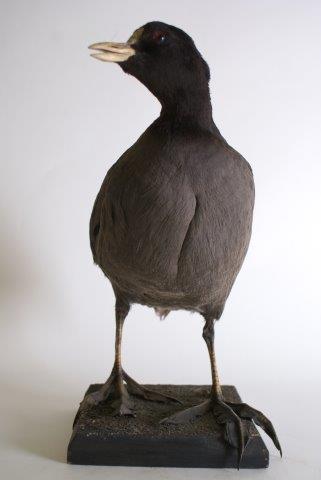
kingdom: Animalia
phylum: Chordata
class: Aves
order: Gruiformes
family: Rallidae
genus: Fulica
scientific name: Fulica atra
